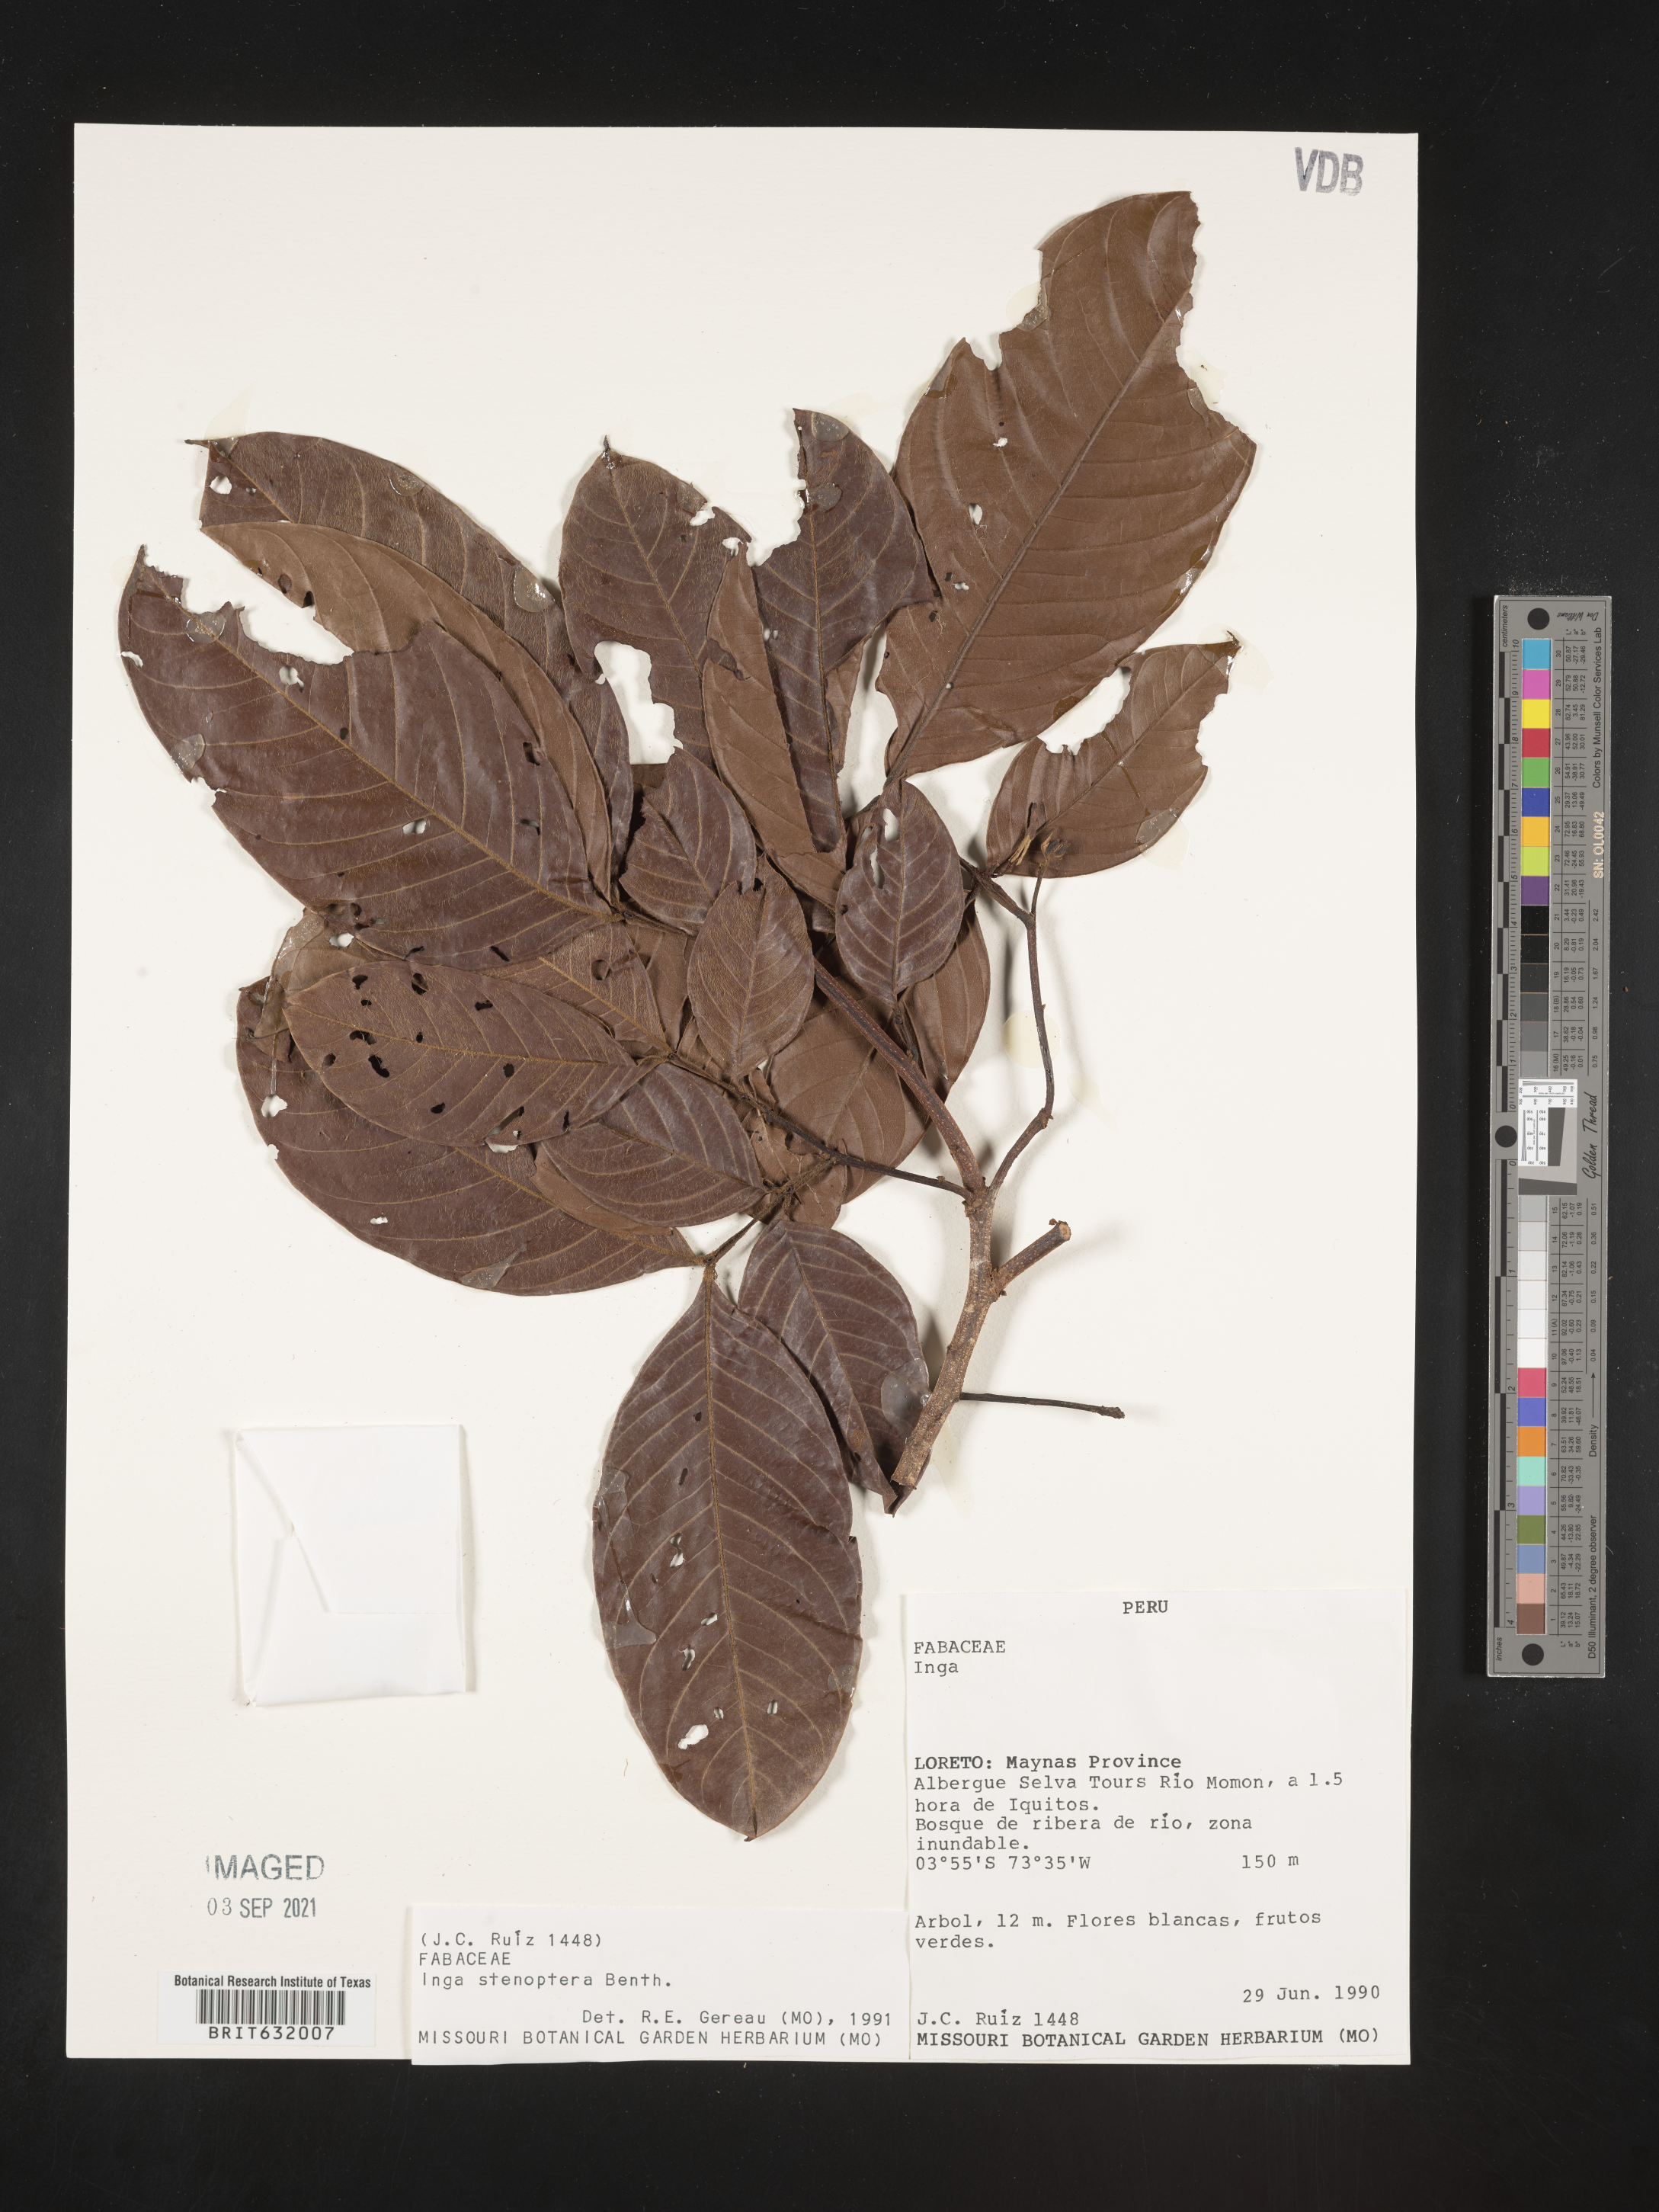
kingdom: Plantae
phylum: Tracheophyta
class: Magnoliopsida
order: Fabales
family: Fabaceae
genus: Inga
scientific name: Inga
